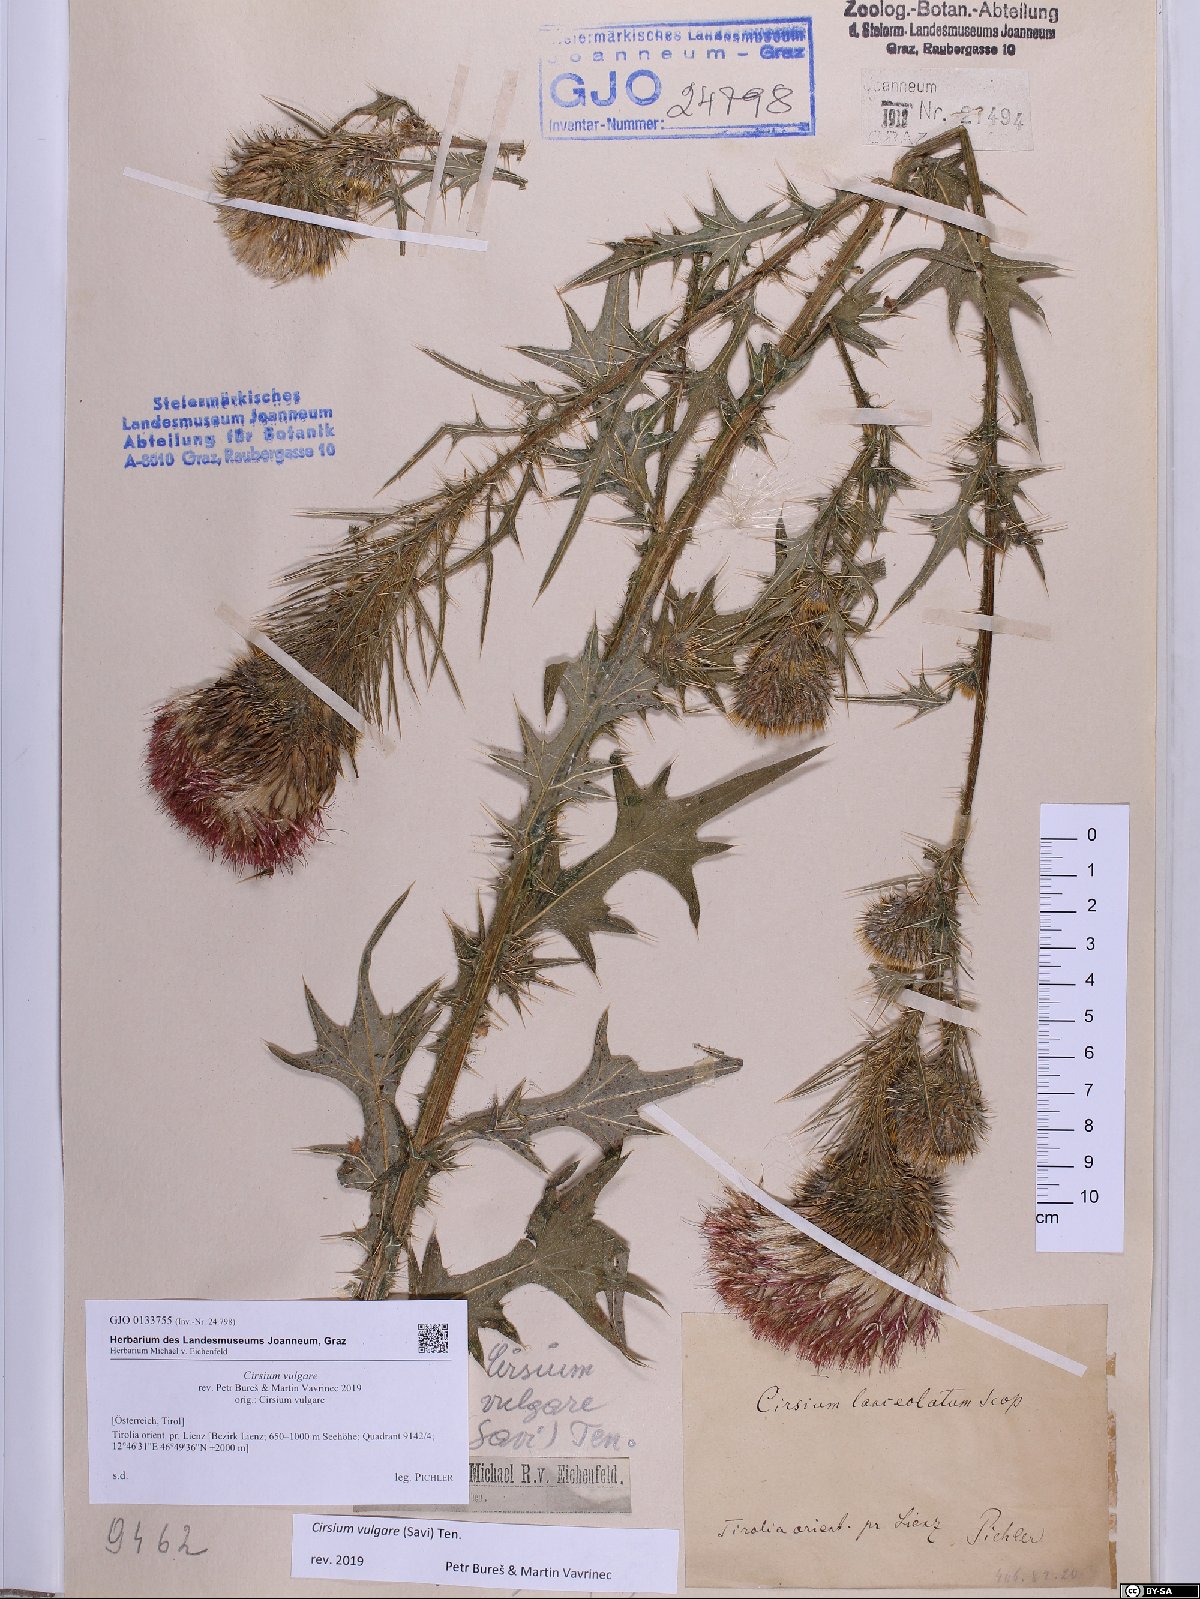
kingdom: Plantae
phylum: Tracheophyta
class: Magnoliopsida
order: Asterales
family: Asteraceae
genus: Cirsium
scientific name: Cirsium vulgare
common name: Bull thistle
